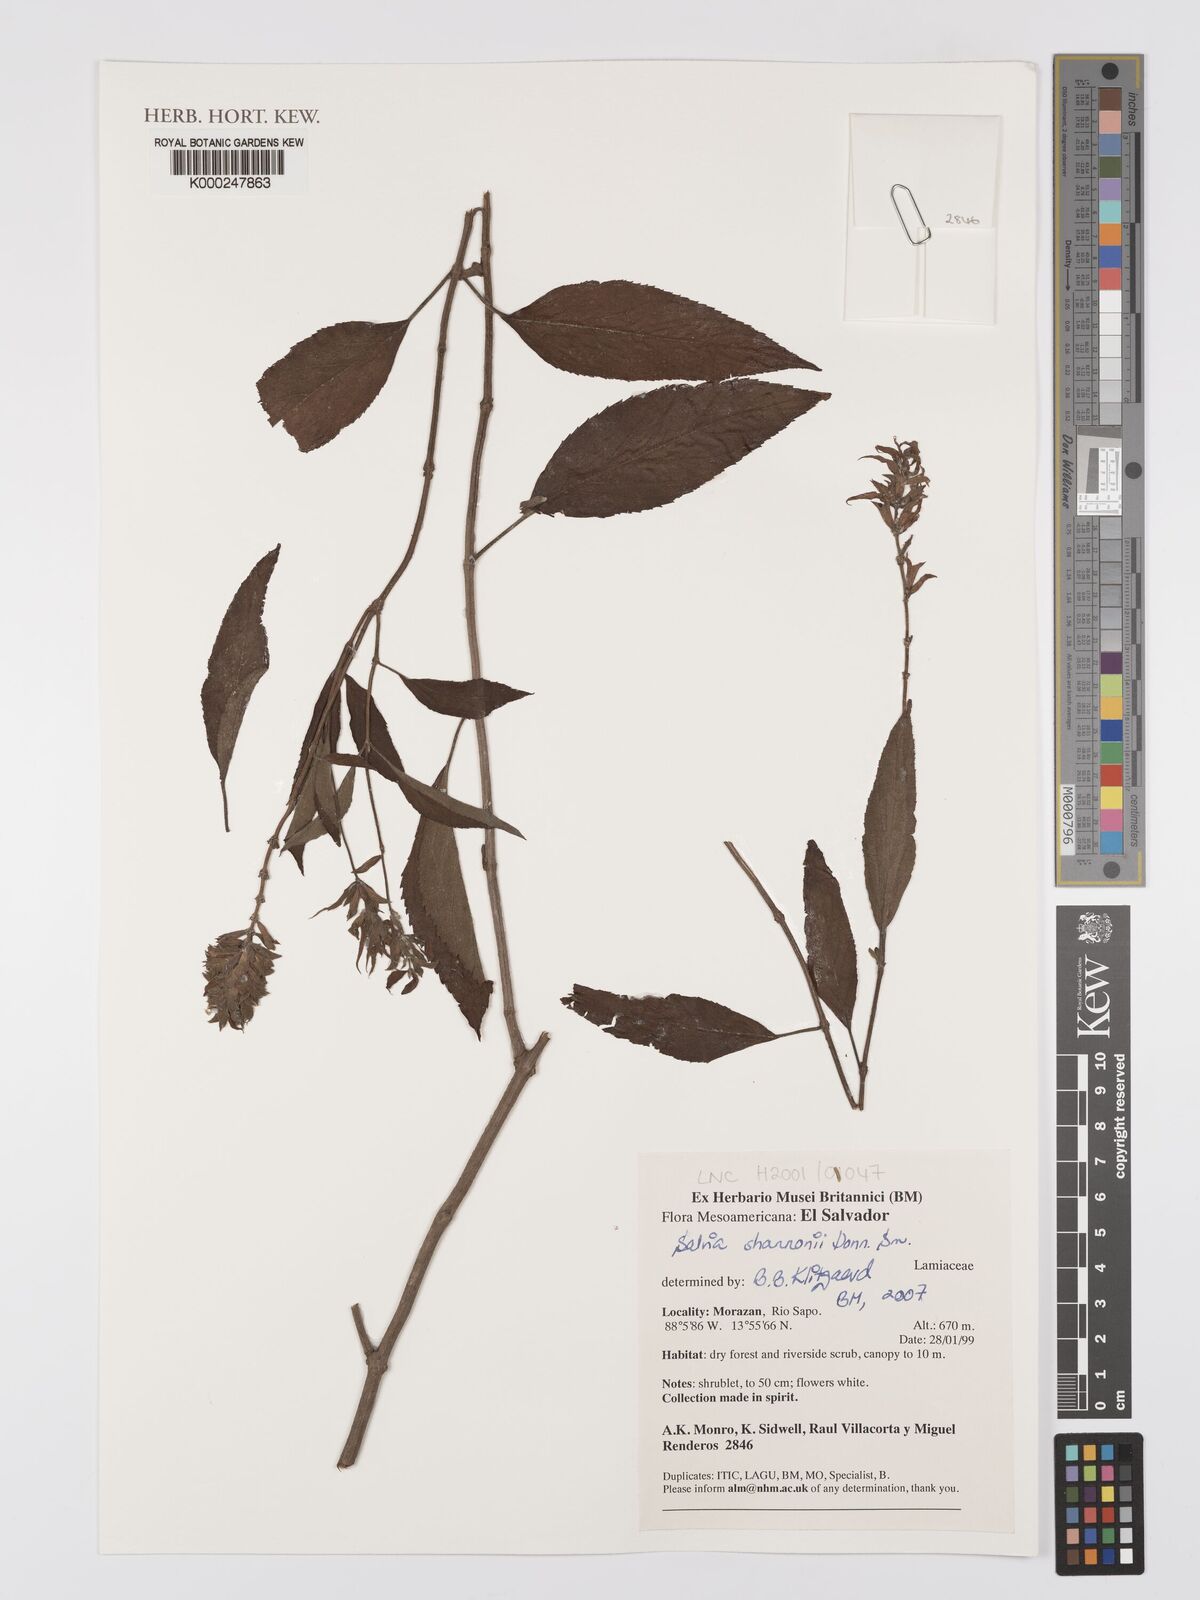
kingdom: Plantae
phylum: Tracheophyta
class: Magnoliopsida
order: Lamiales
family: Lamiaceae
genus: Salvia
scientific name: Salvia mocinoi
